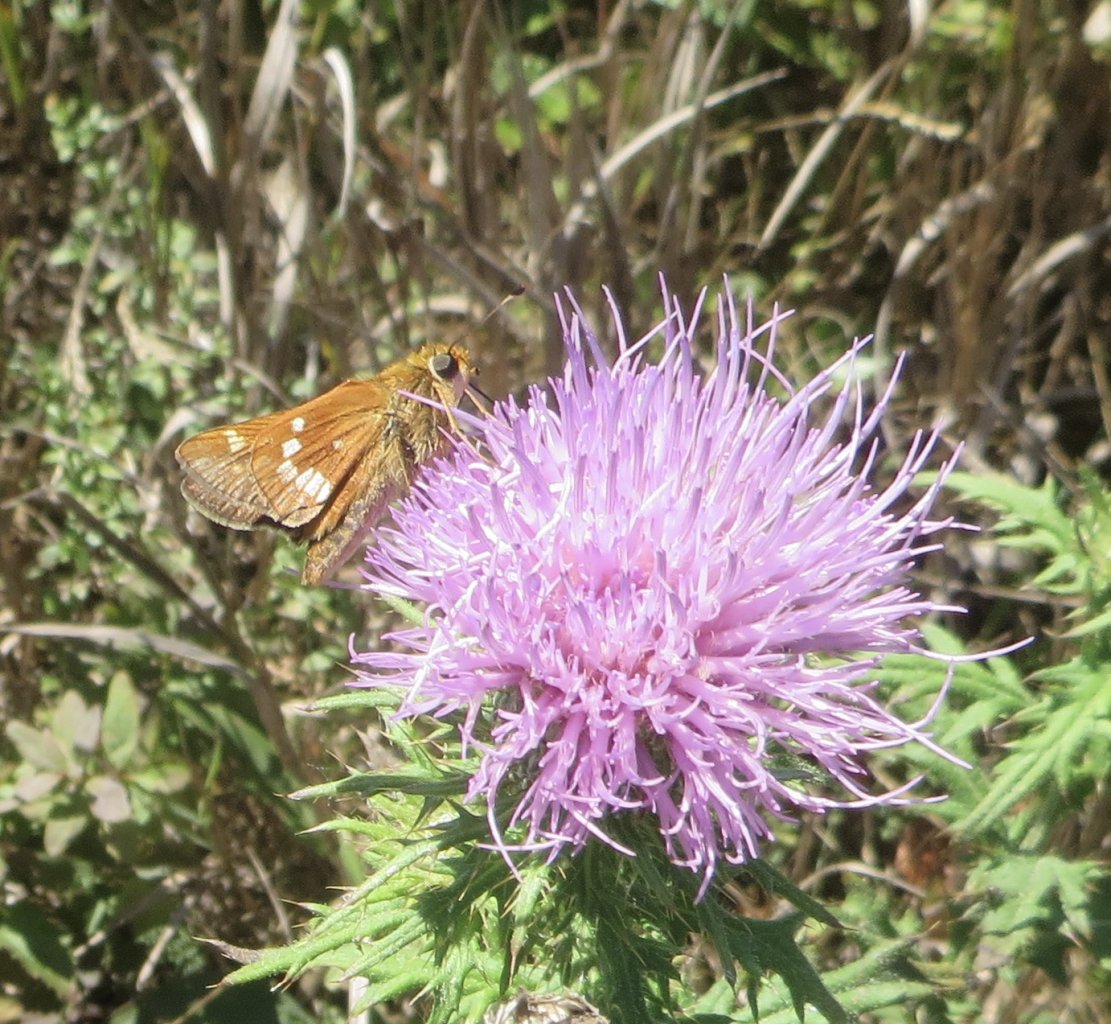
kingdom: Animalia
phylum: Arthropoda
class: Insecta
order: Lepidoptera
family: Hesperiidae
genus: Hesperia
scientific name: Hesperia leonardus
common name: Leonard's Skipper
